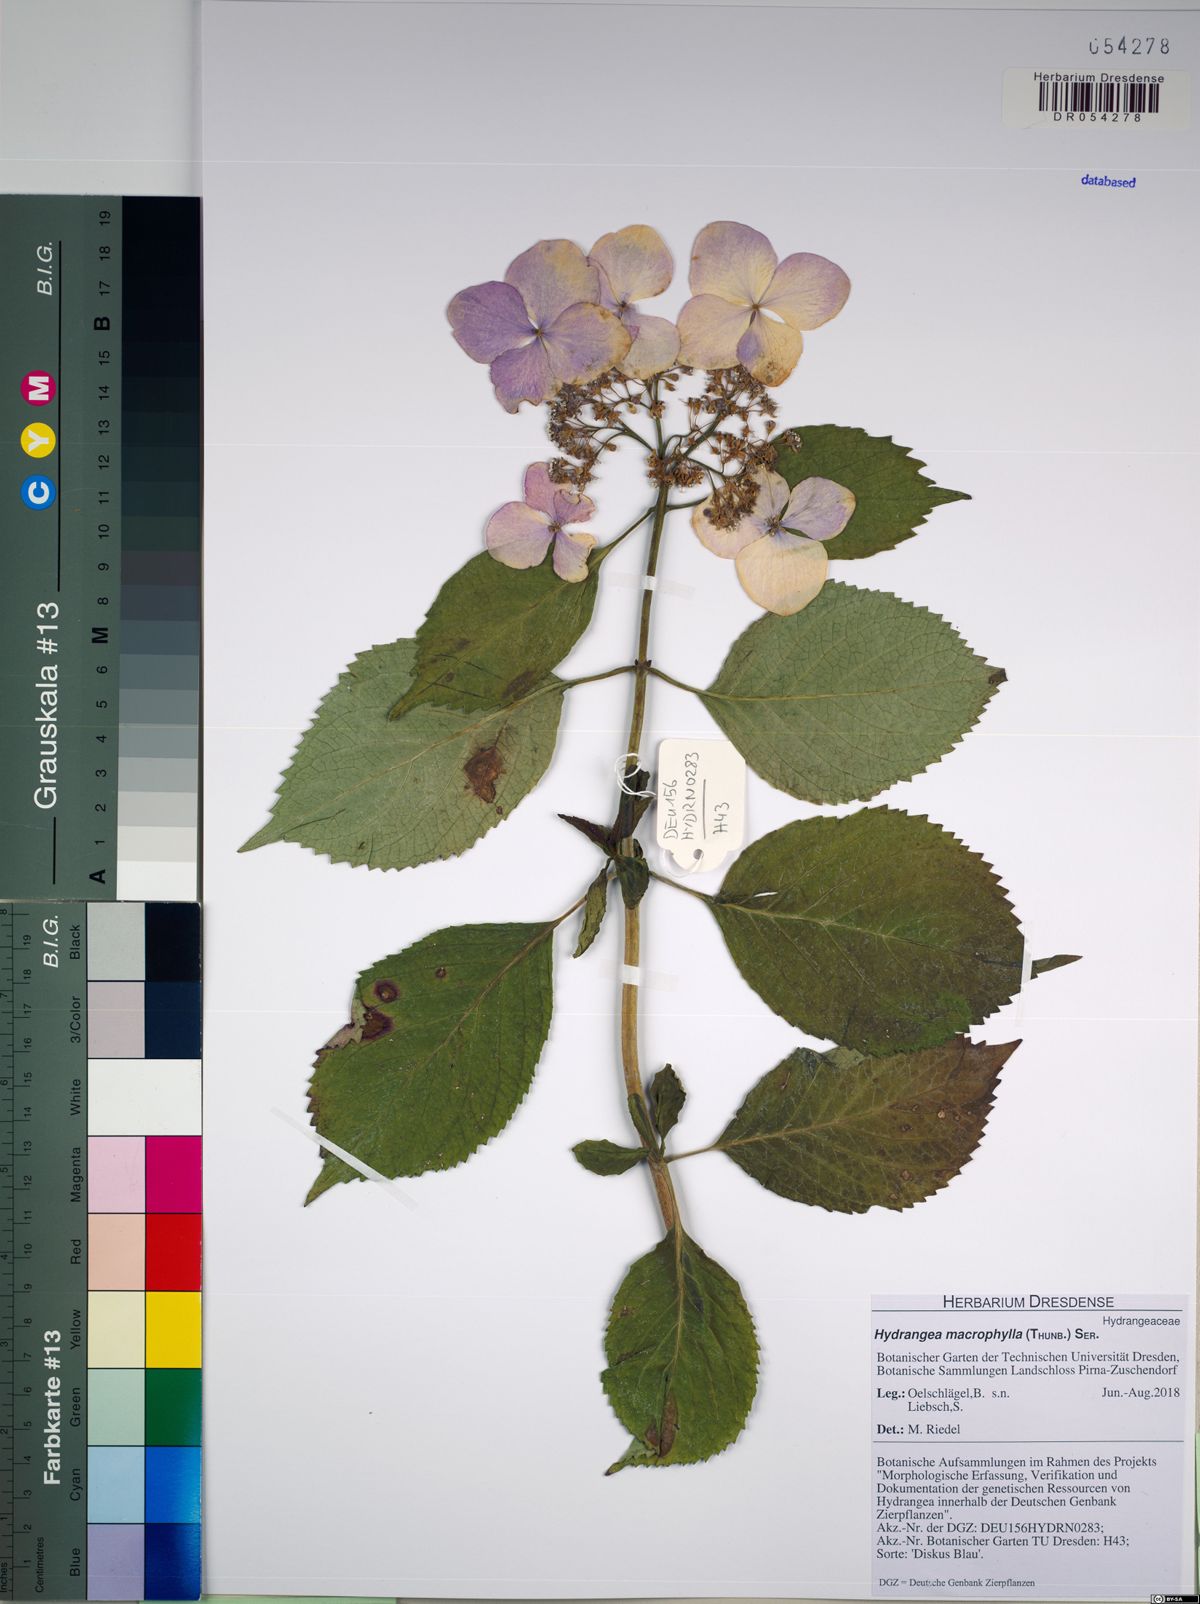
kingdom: Plantae
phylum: Tracheophyta
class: Magnoliopsida
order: Cornales
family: Hydrangeaceae
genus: Hydrangea
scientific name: Hydrangea macrophylla
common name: Hydrangea
